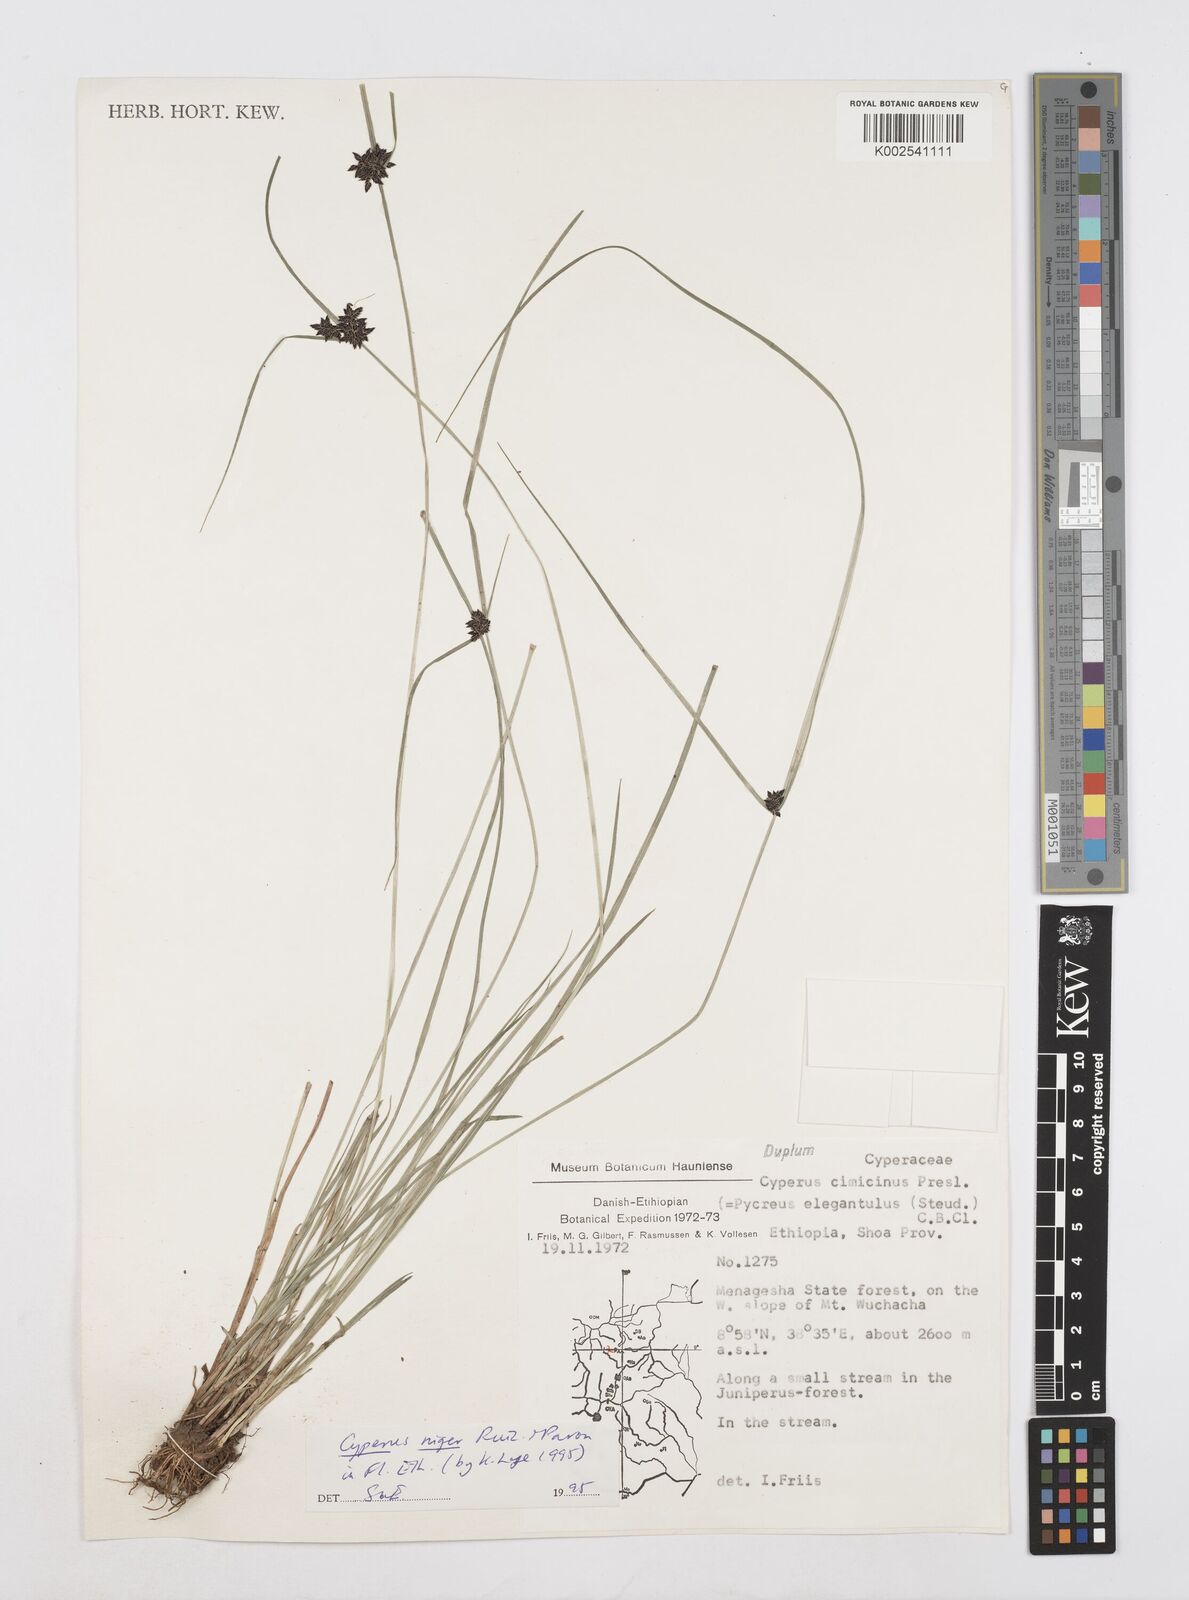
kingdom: Plantae
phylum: Tracheophyta
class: Liliopsida
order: Poales
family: Cyperaceae
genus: Cyperus
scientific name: Cyperus elegantulus
